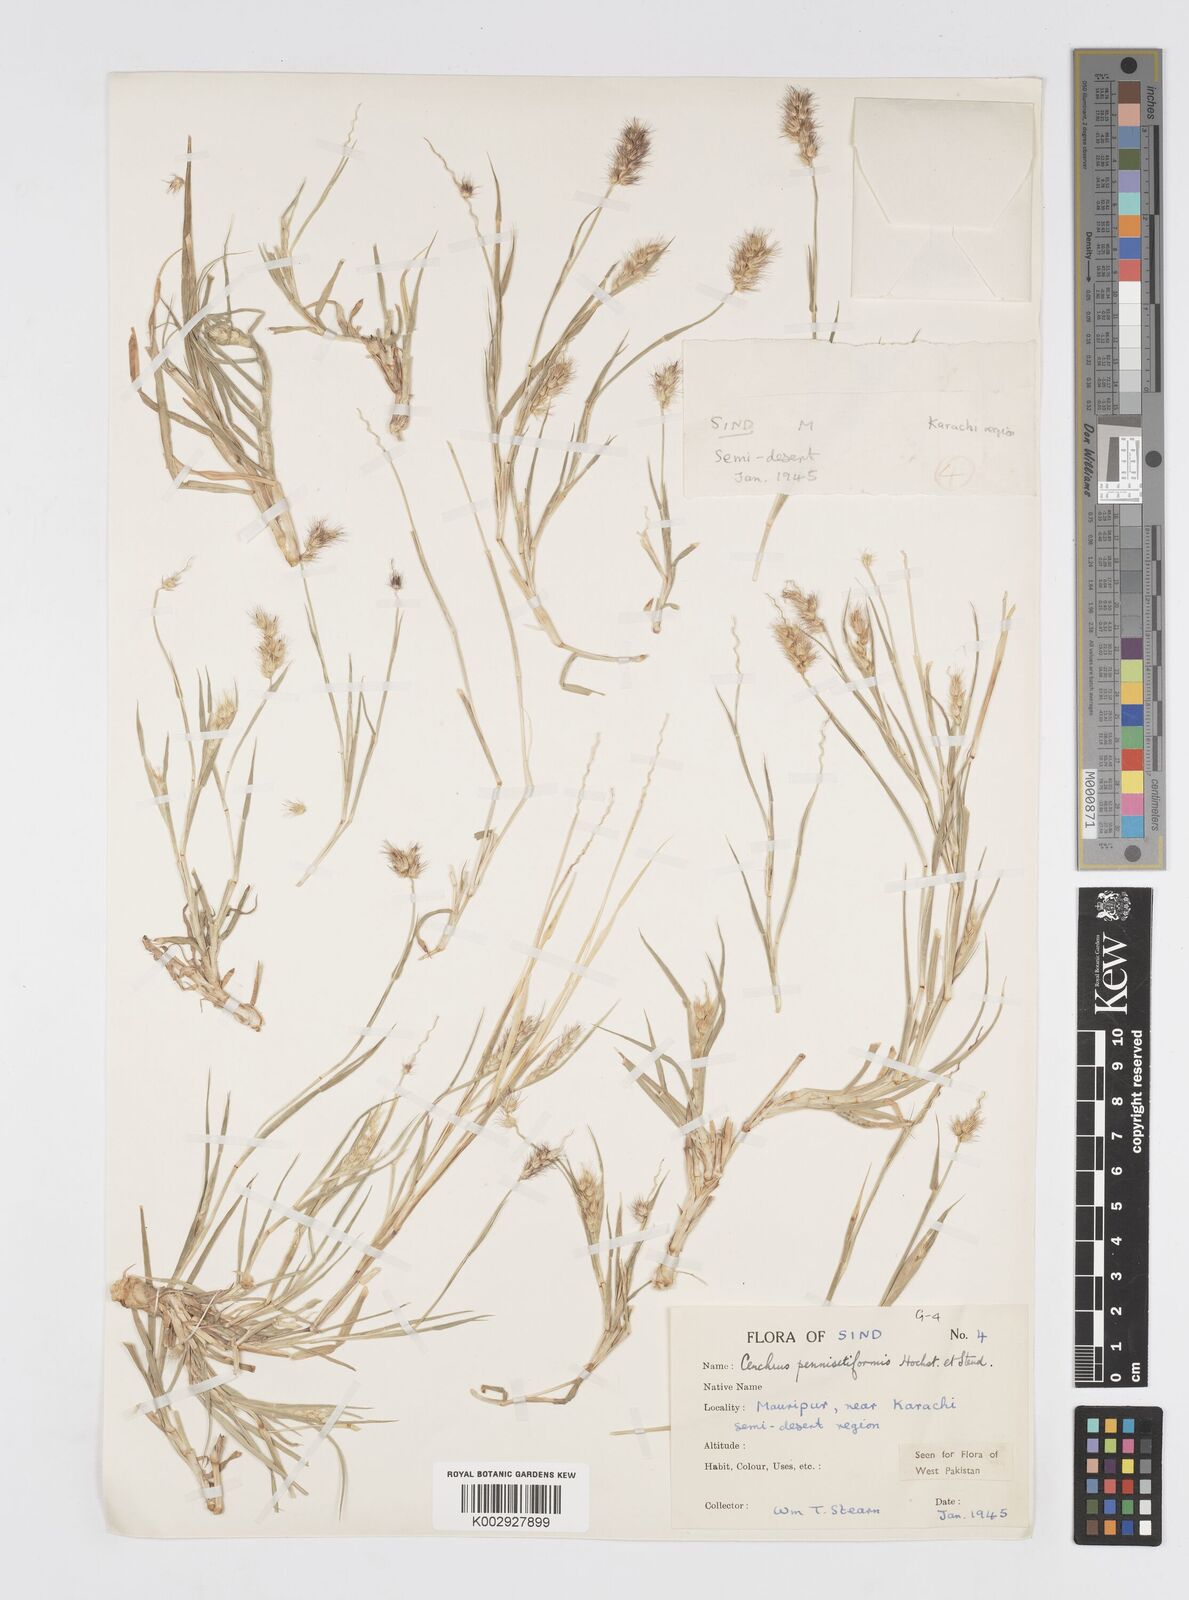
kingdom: Plantae
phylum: Tracheophyta
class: Liliopsida
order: Poales
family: Poaceae
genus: Cenchrus
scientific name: Cenchrus pennisetiformis
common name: Cloncurry
